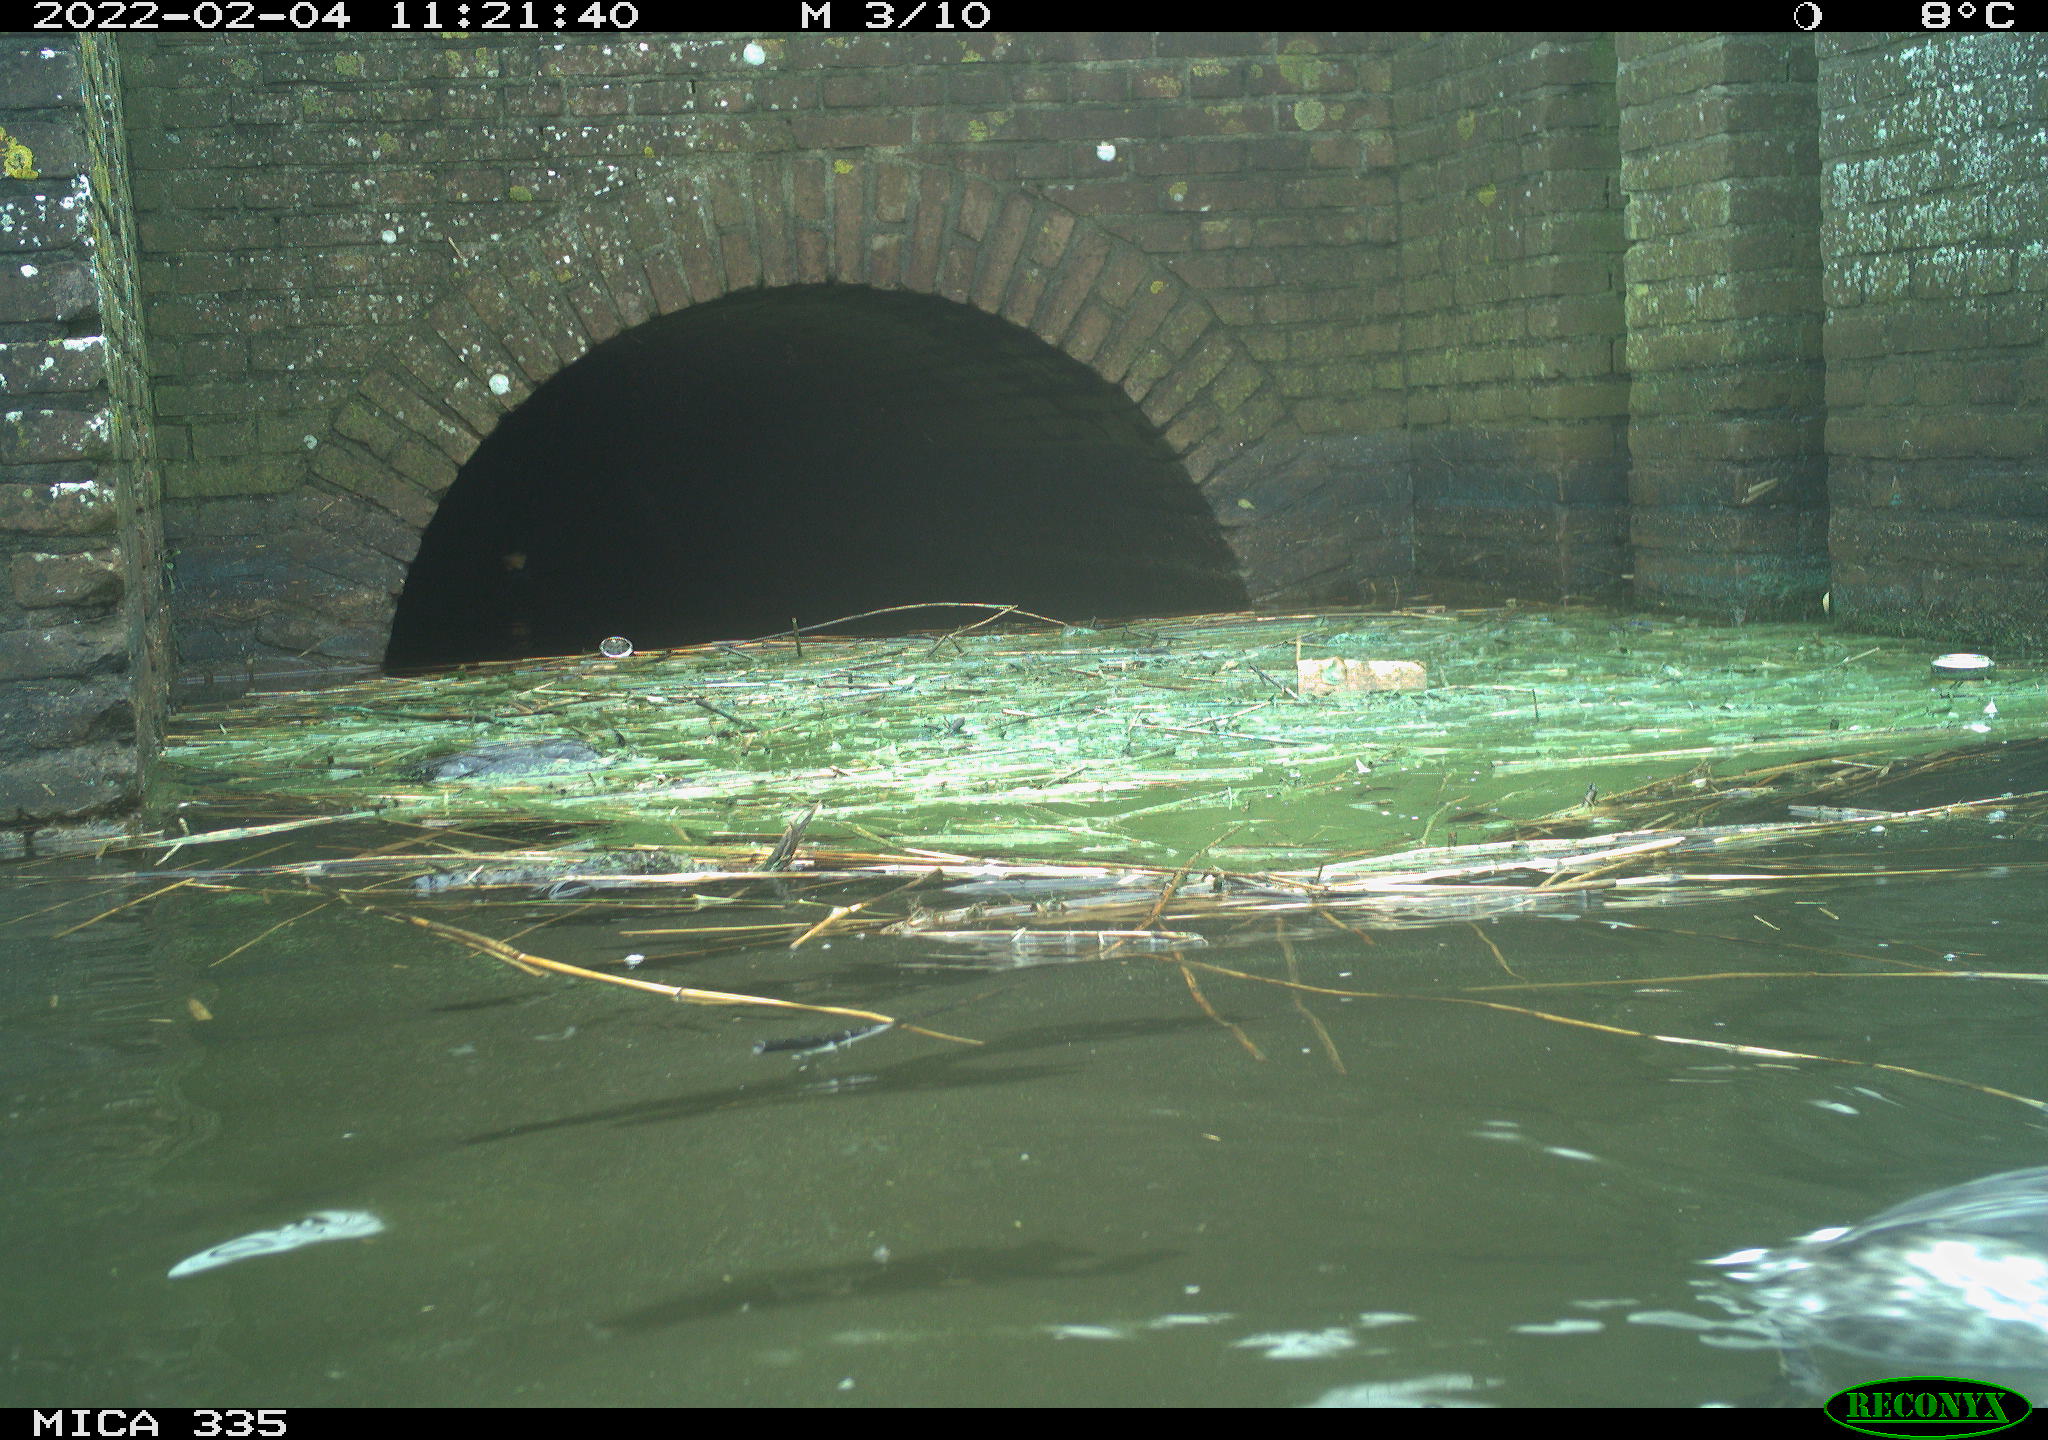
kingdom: Animalia
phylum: Chordata
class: Aves
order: Podicipediformes
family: Podicipedidae
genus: Podiceps
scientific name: Podiceps cristatus
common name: Great crested grebe
